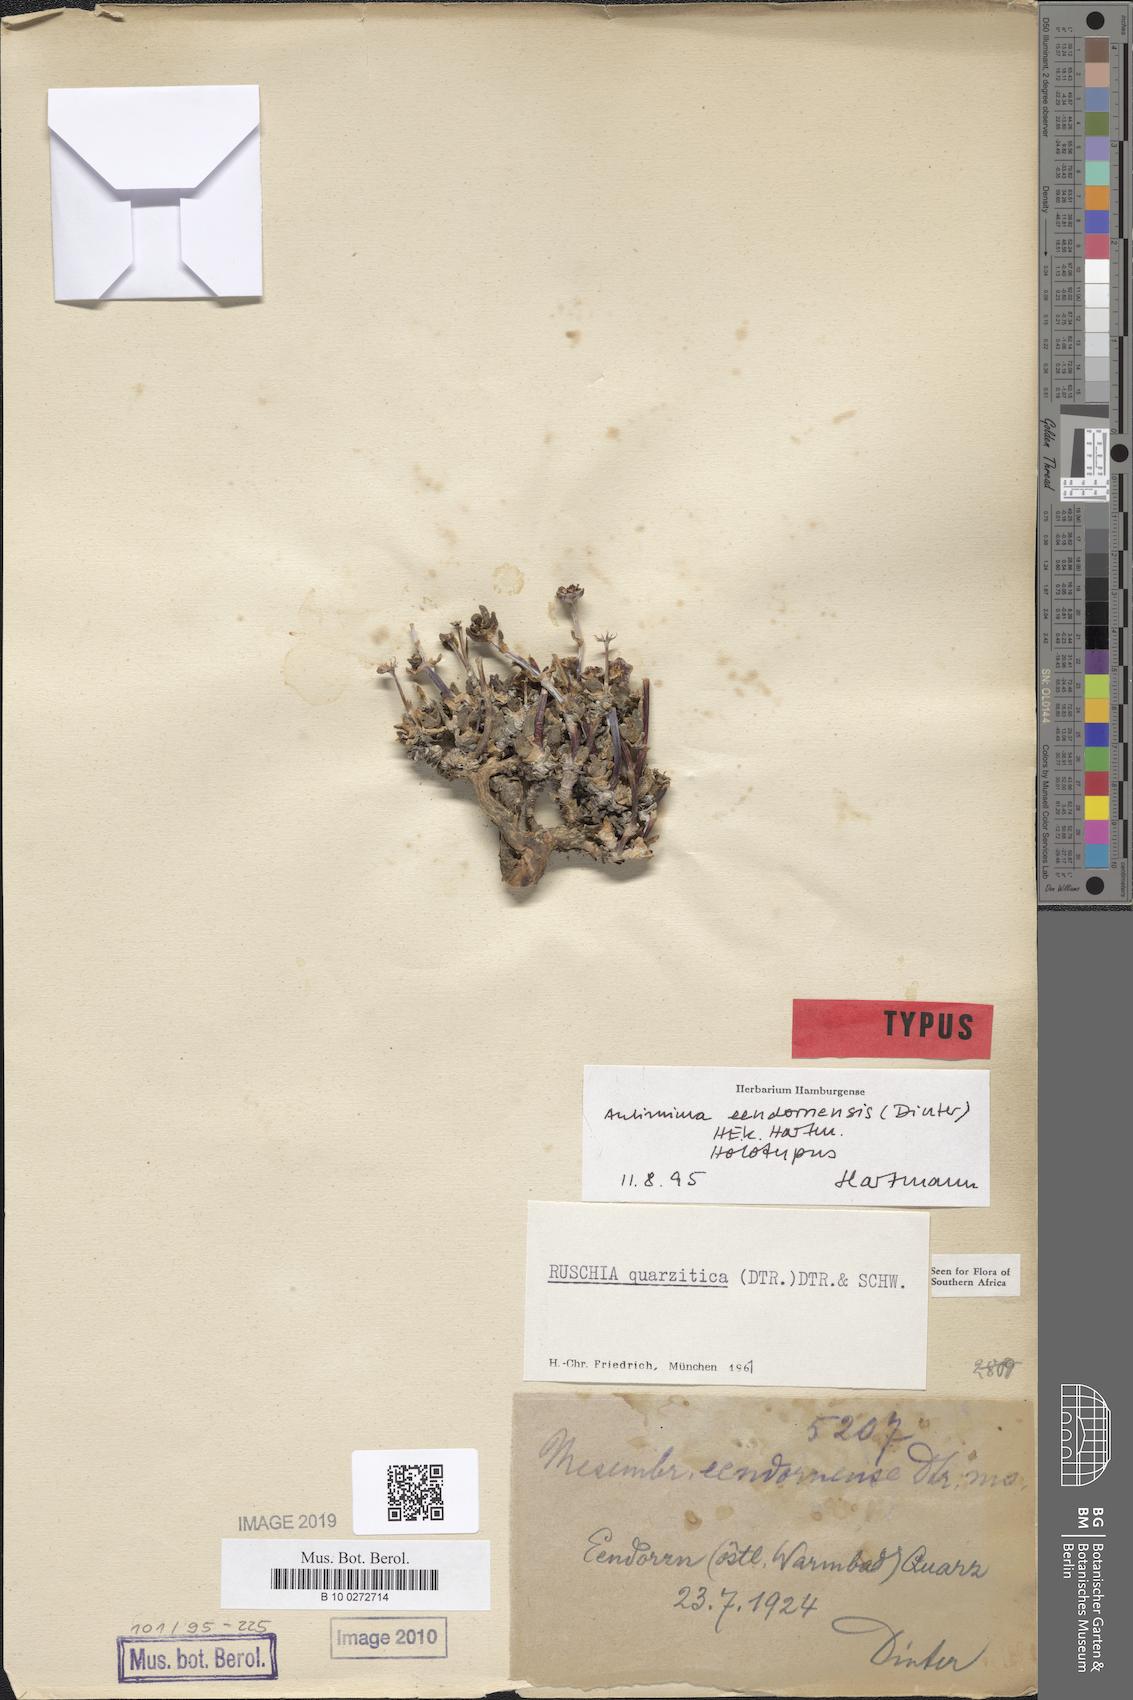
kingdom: Plantae
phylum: Tracheophyta
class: Magnoliopsida
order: Caryophyllales
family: Aizoaceae
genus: Antimima
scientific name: Antimima eendornensis
